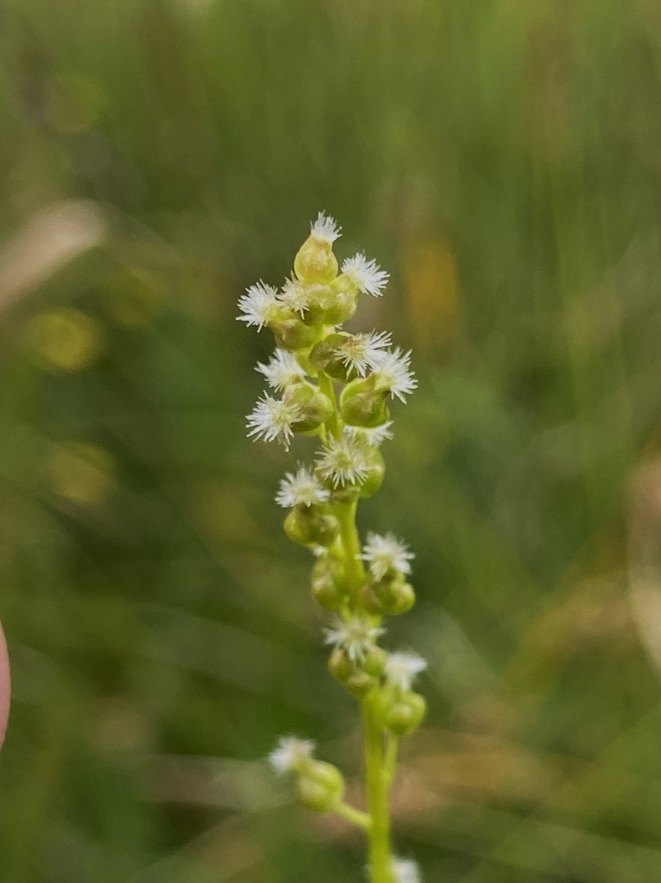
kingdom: Plantae
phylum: Tracheophyta
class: Liliopsida
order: Alismatales
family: Juncaginaceae
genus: Triglochin
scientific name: Triglochin palustris
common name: Kær-trehage
